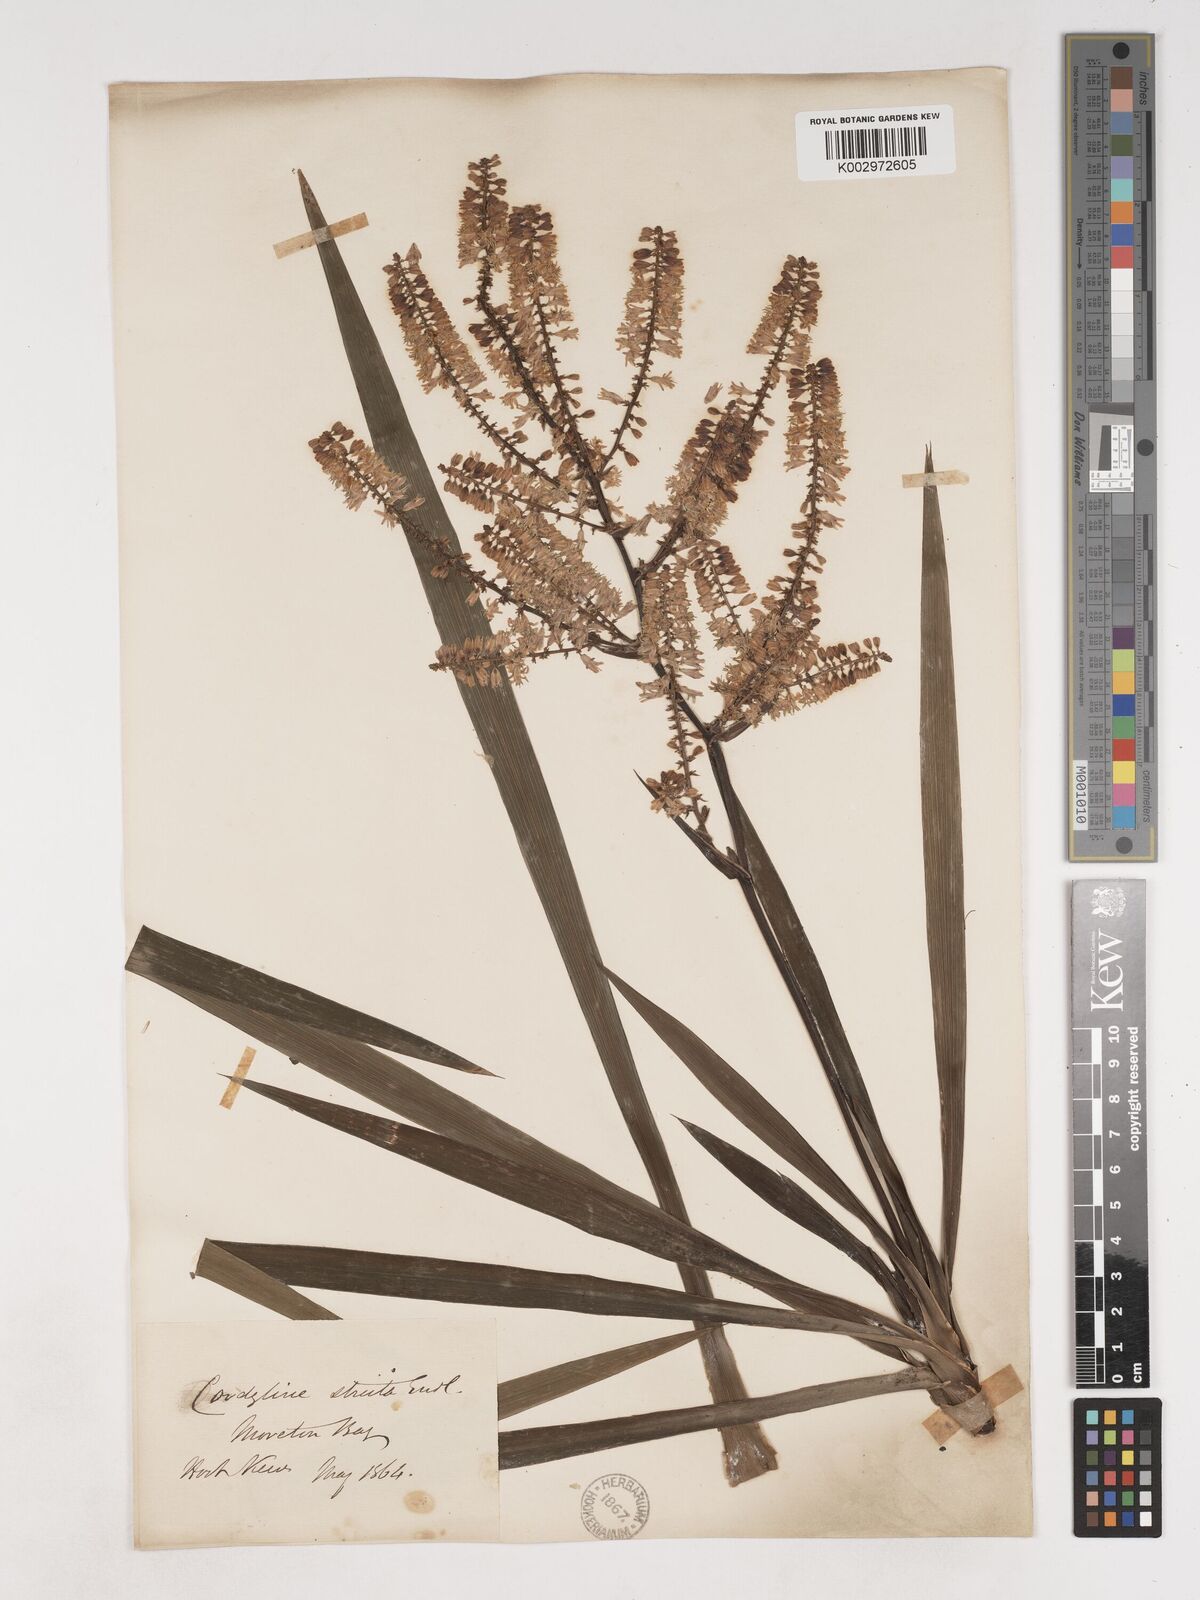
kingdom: Plantae
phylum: Tracheophyta
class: Liliopsida
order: Asparagales
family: Asparagaceae
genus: Cordyline
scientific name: Cordyline stricta
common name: Narrow-leaf palm-lily
